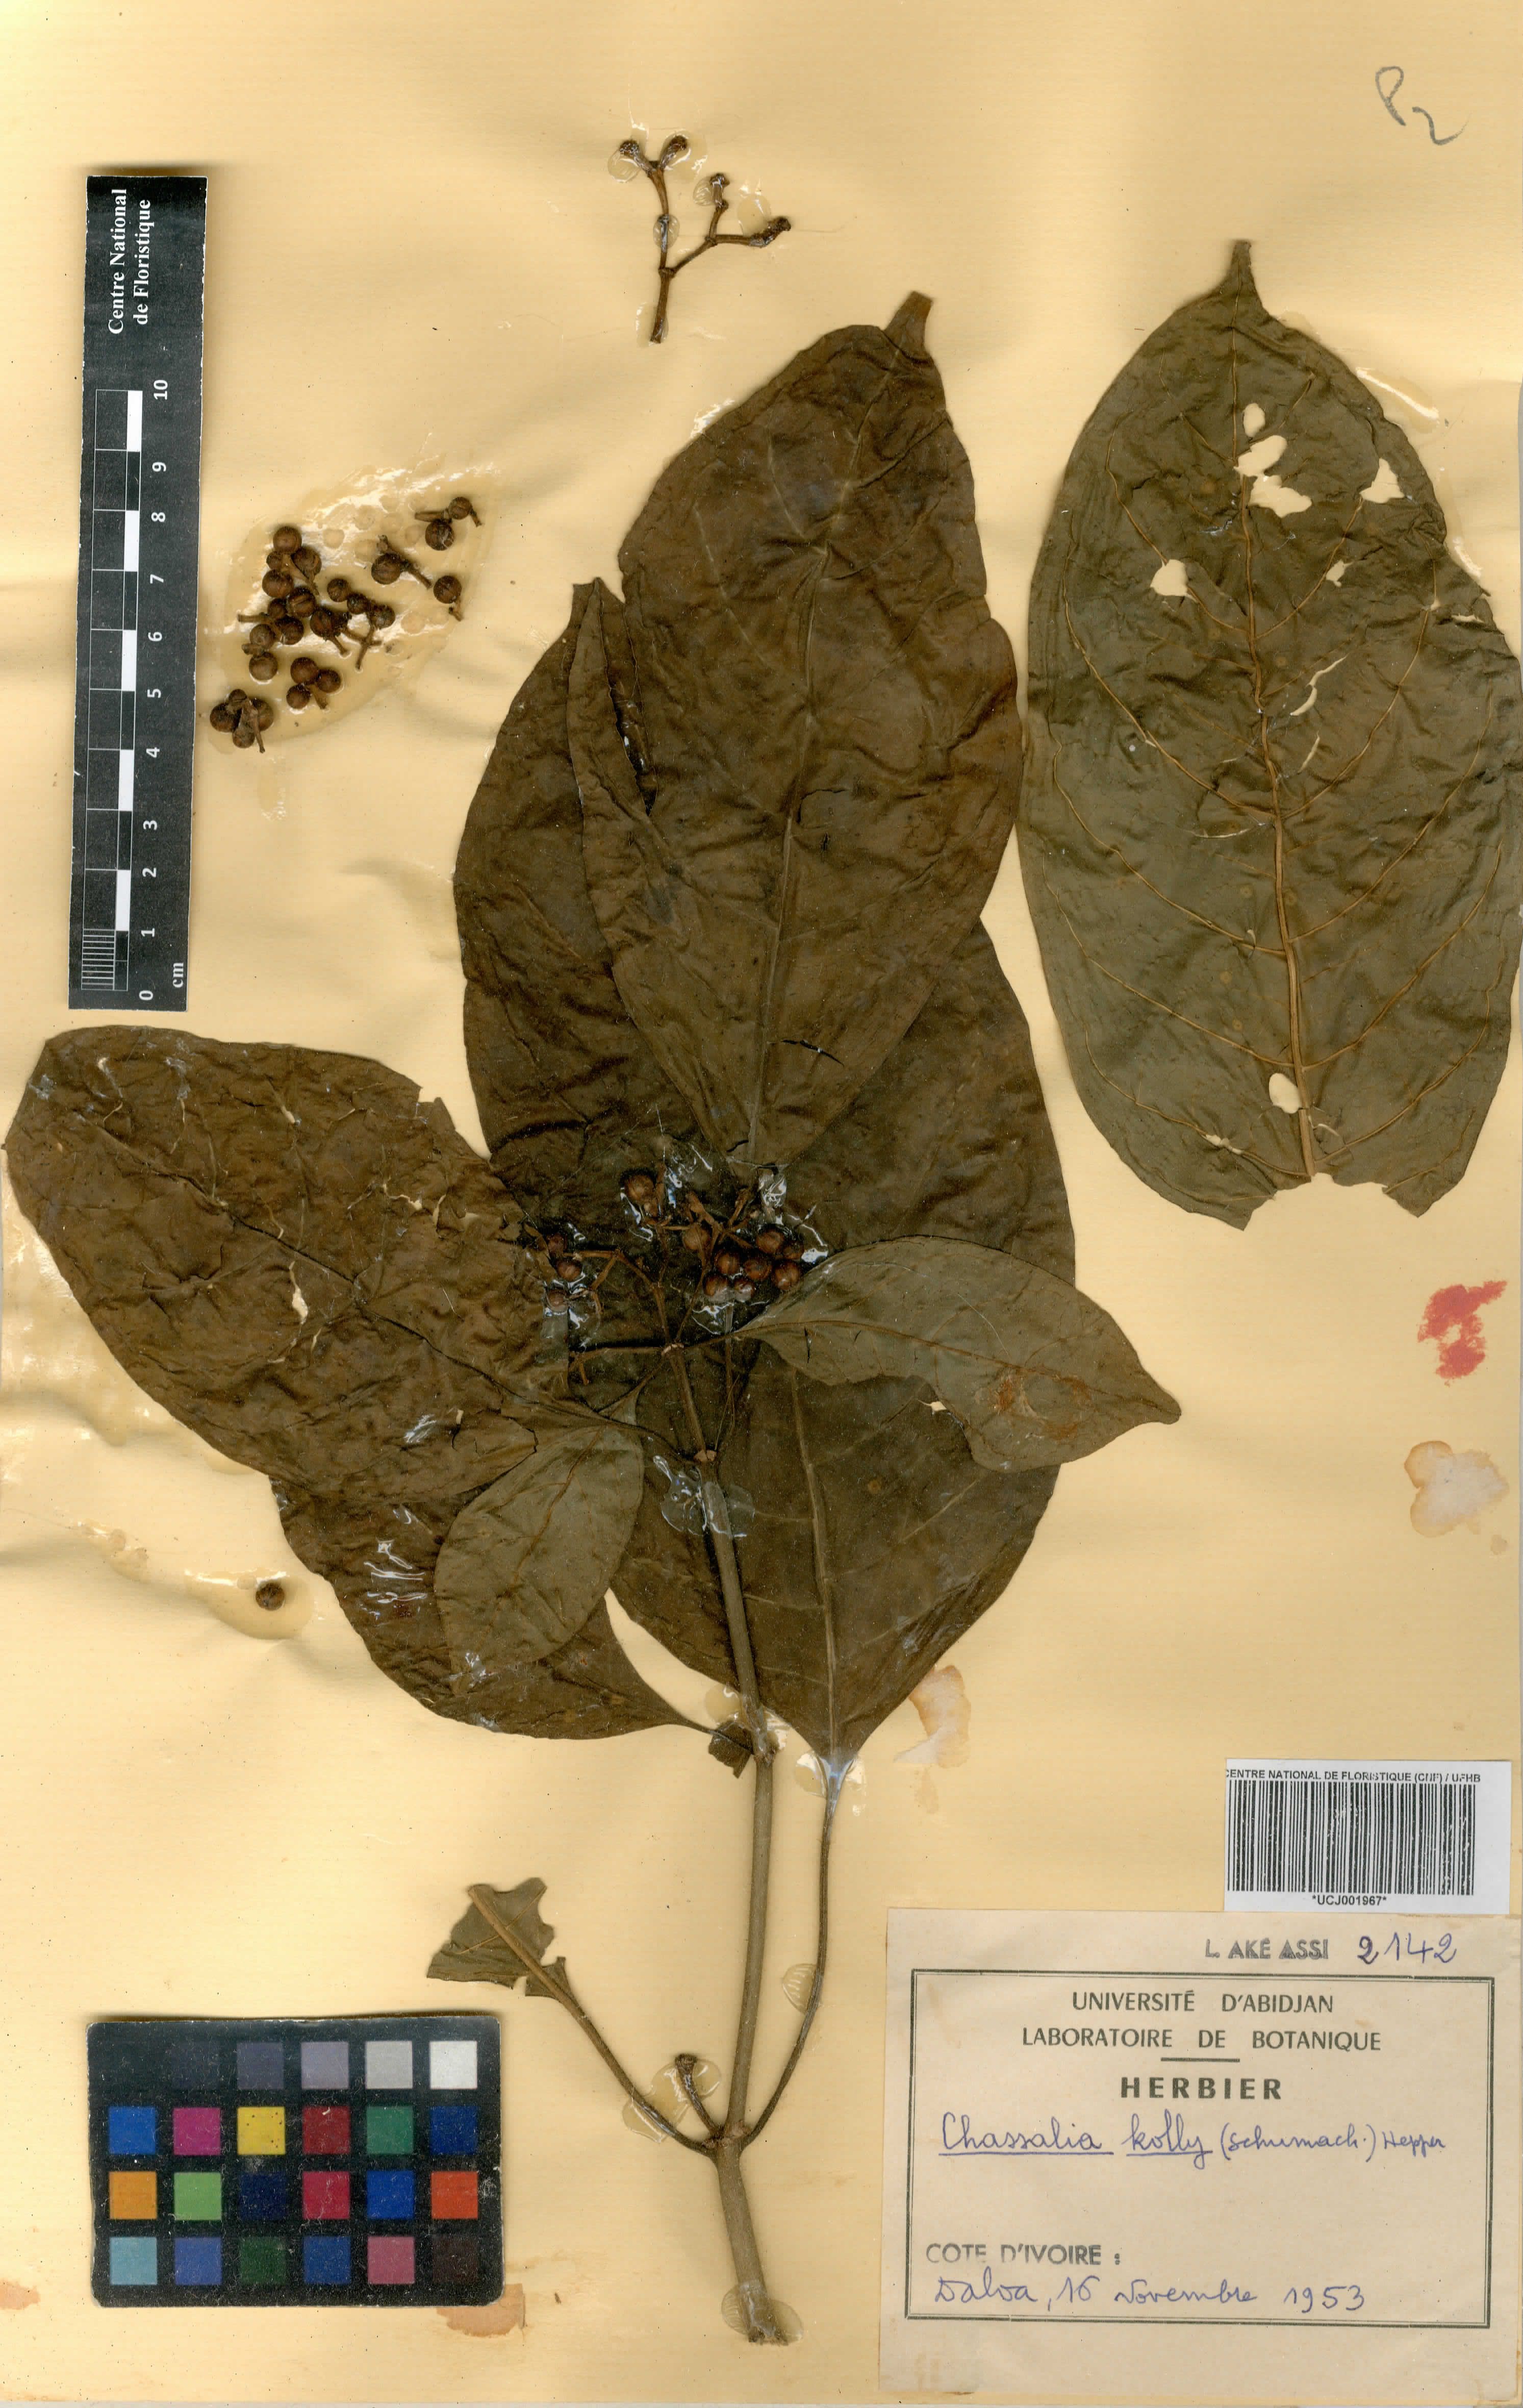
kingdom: Plantae
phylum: Tracheophyta
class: Magnoliopsida
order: Gentianales
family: Rubiaceae
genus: Chassalia
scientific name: Chassalia kolly
